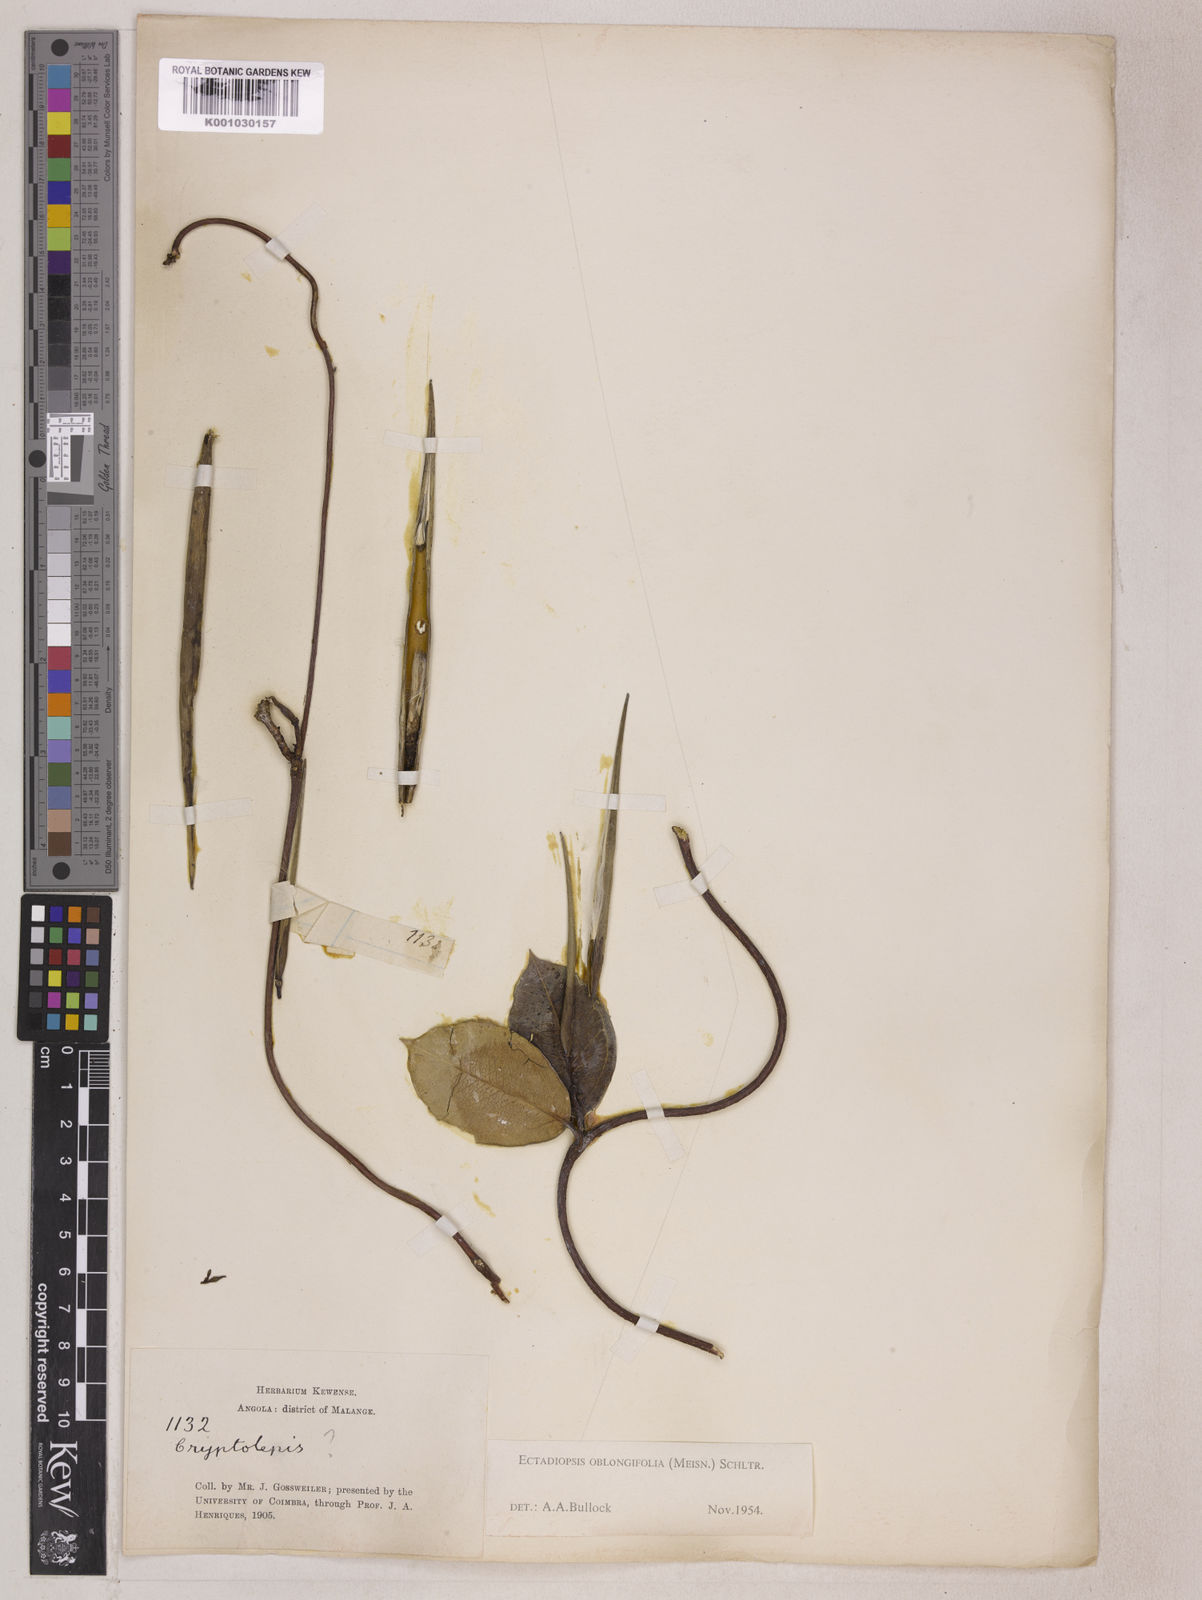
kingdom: Plantae
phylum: Tracheophyta
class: Magnoliopsida
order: Gentianales
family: Apocynaceae
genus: Cryptolepis
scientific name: Cryptolepis oblongifolia
